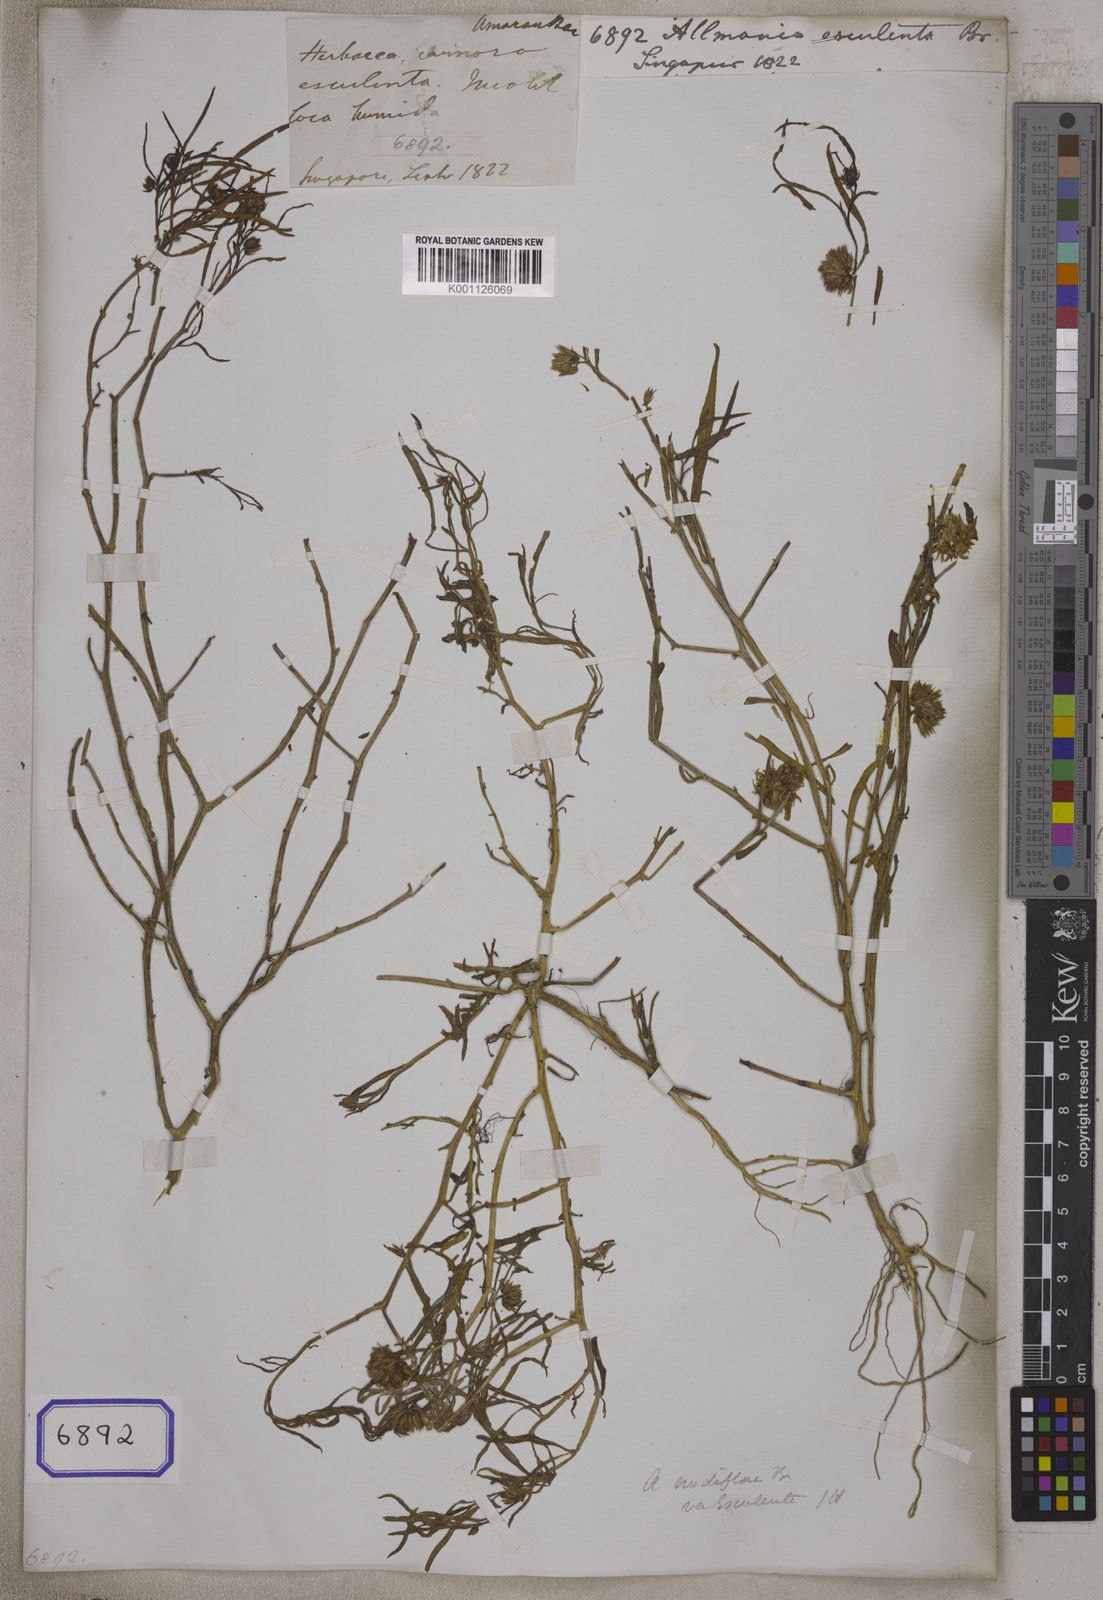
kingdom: Plantae
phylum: Tracheophyta
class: Magnoliopsida
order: Caryophyllales
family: Amaranthaceae
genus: Allmania
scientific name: Allmania
